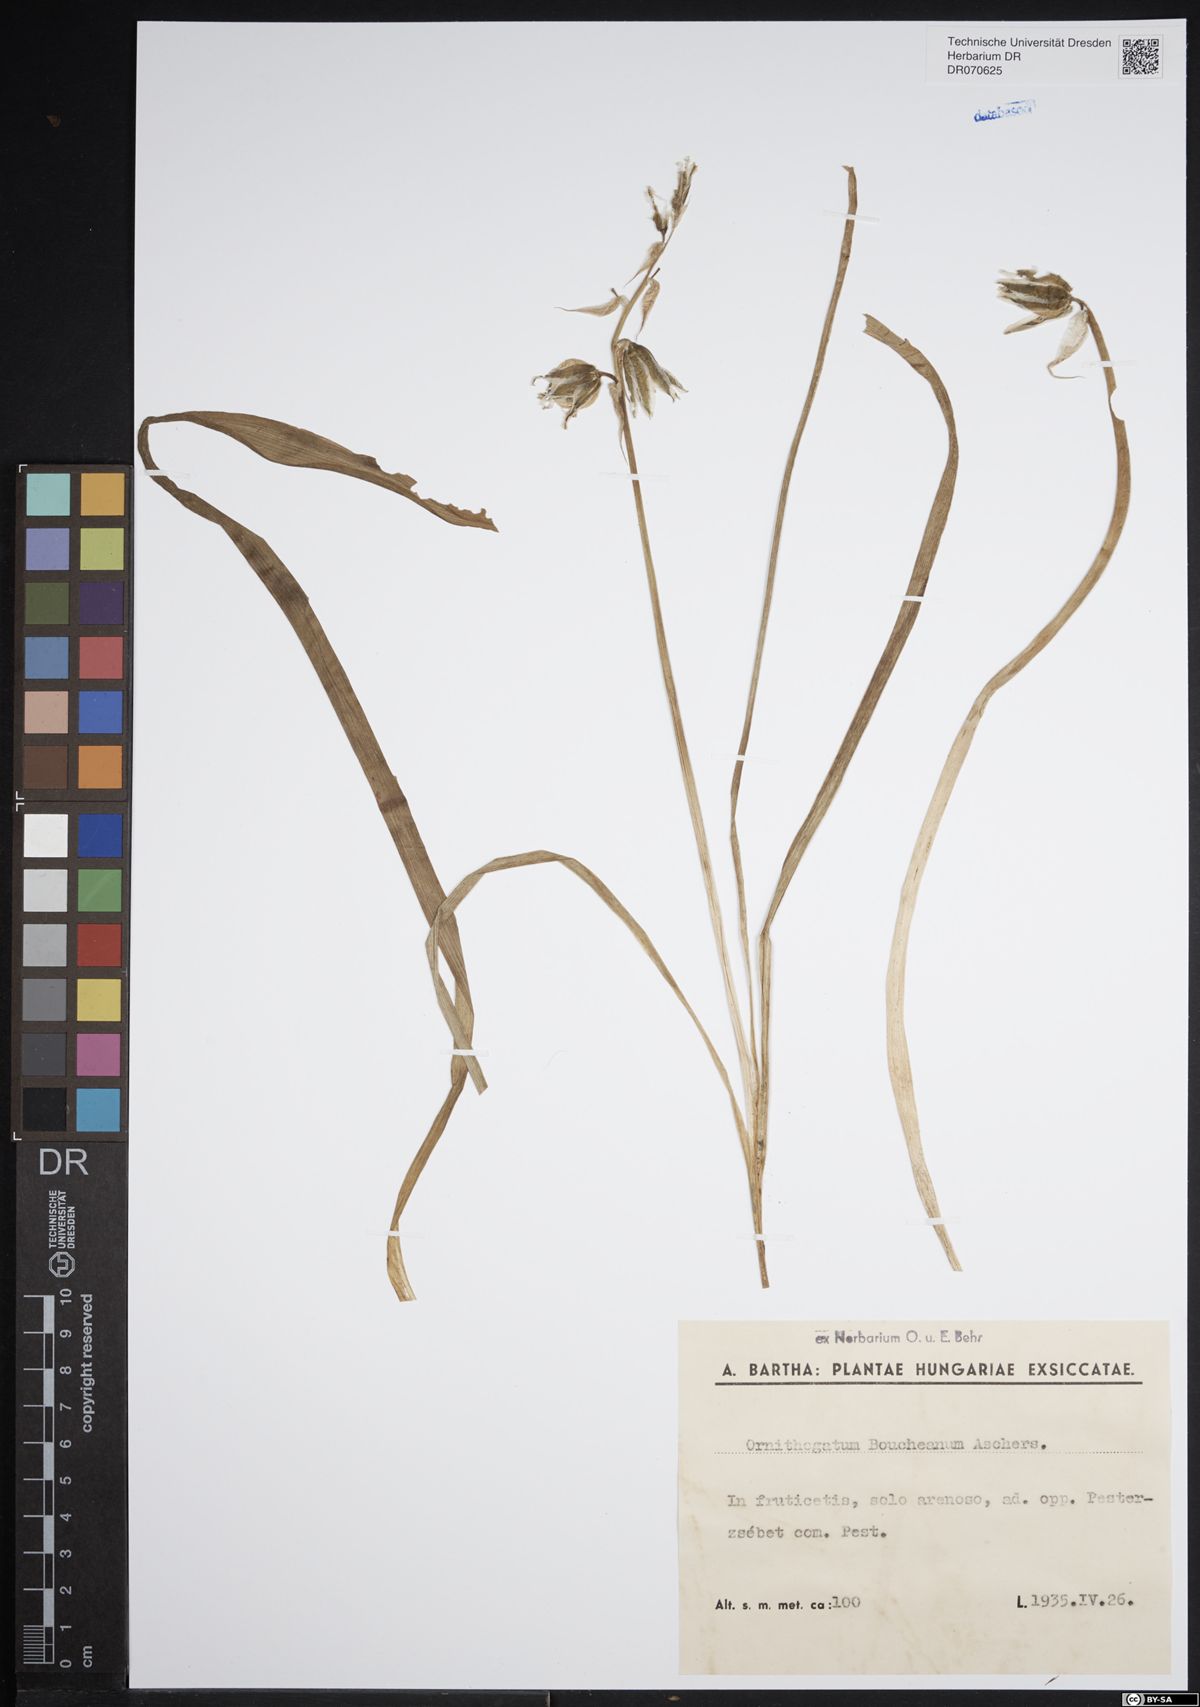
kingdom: Plantae
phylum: Tracheophyta
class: Liliopsida
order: Asparagales
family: Asparagaceae
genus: Ornithogalum
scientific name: Ornithogalum boucheanum
